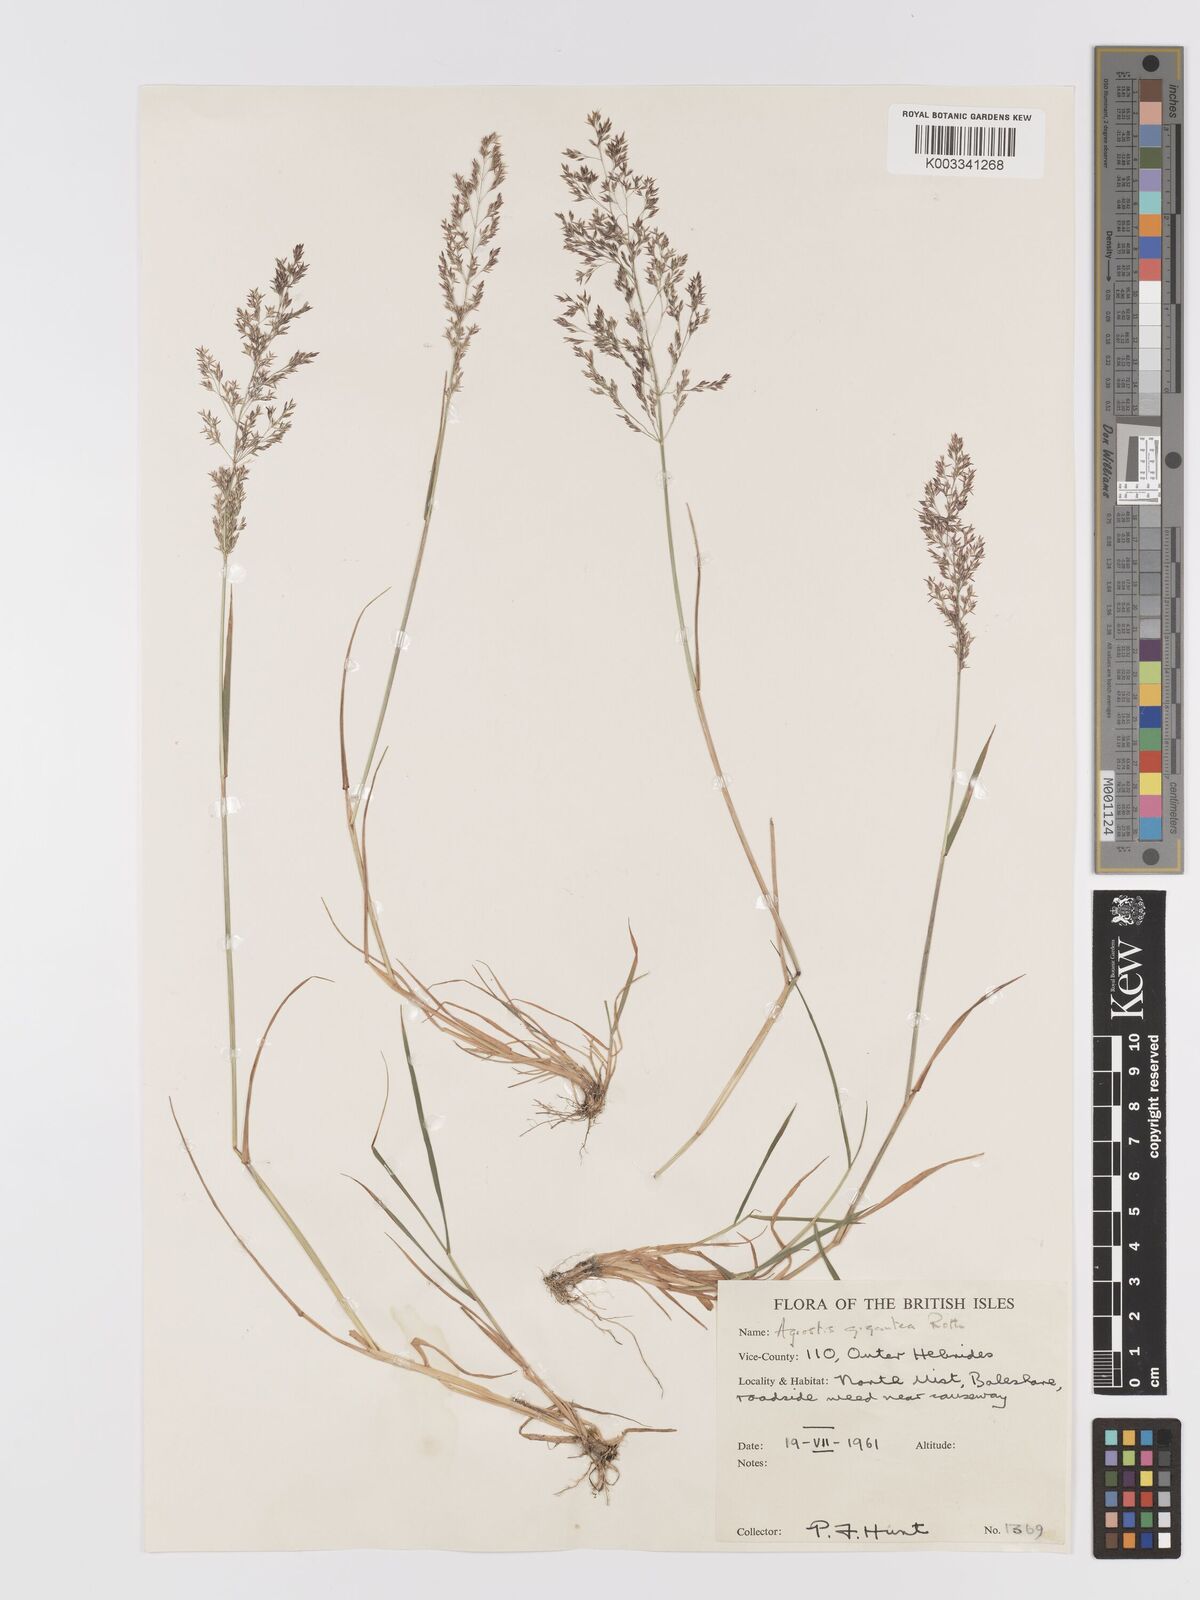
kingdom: Plantae
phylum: Tracheophyta
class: Liliopsida
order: Poales
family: Poaceae
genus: Agrostis
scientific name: Agrostis gigantea
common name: Black bent
